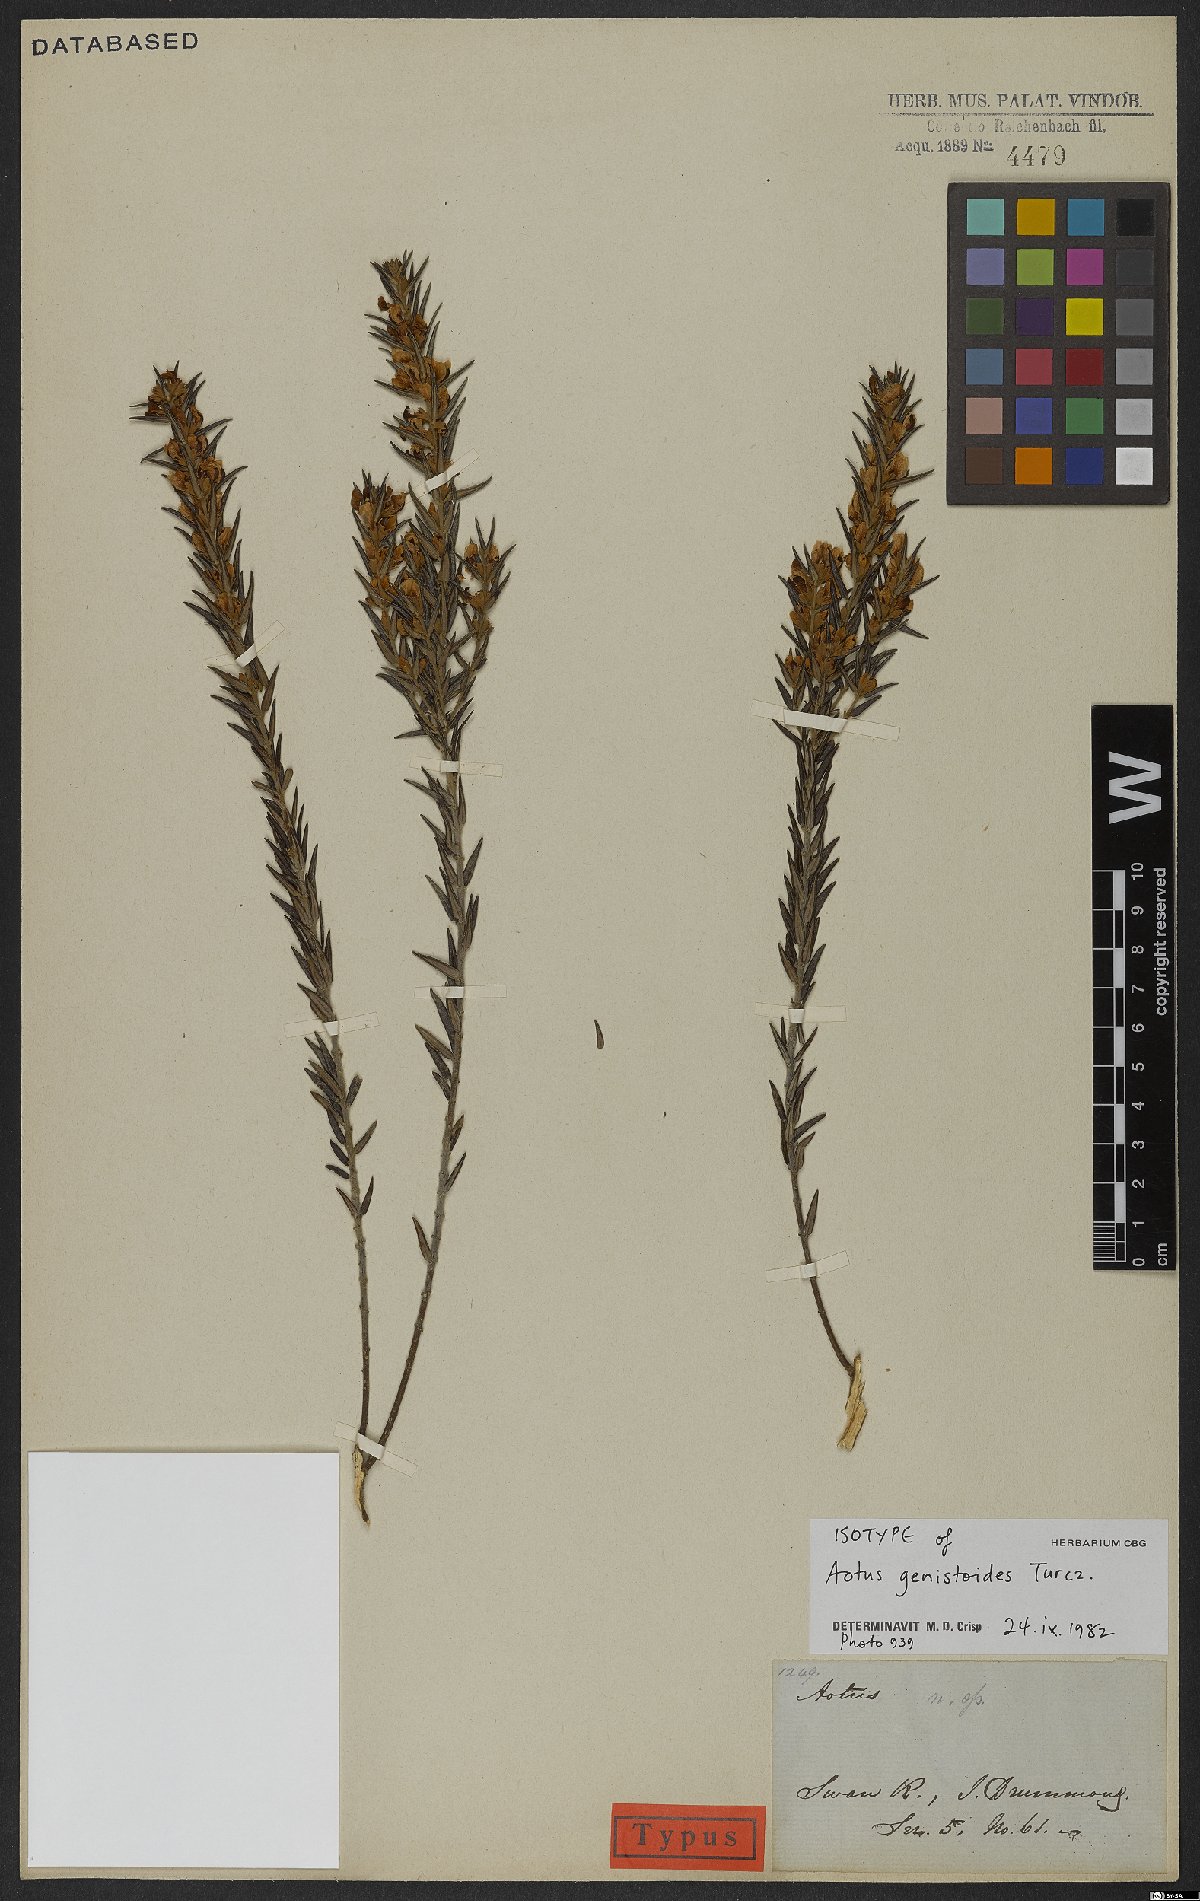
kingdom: Plantae
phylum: Tracheophyta
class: Magnoliopsida
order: Fabales
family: Fabaceae
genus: Aotus
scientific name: Aotus genistoides
